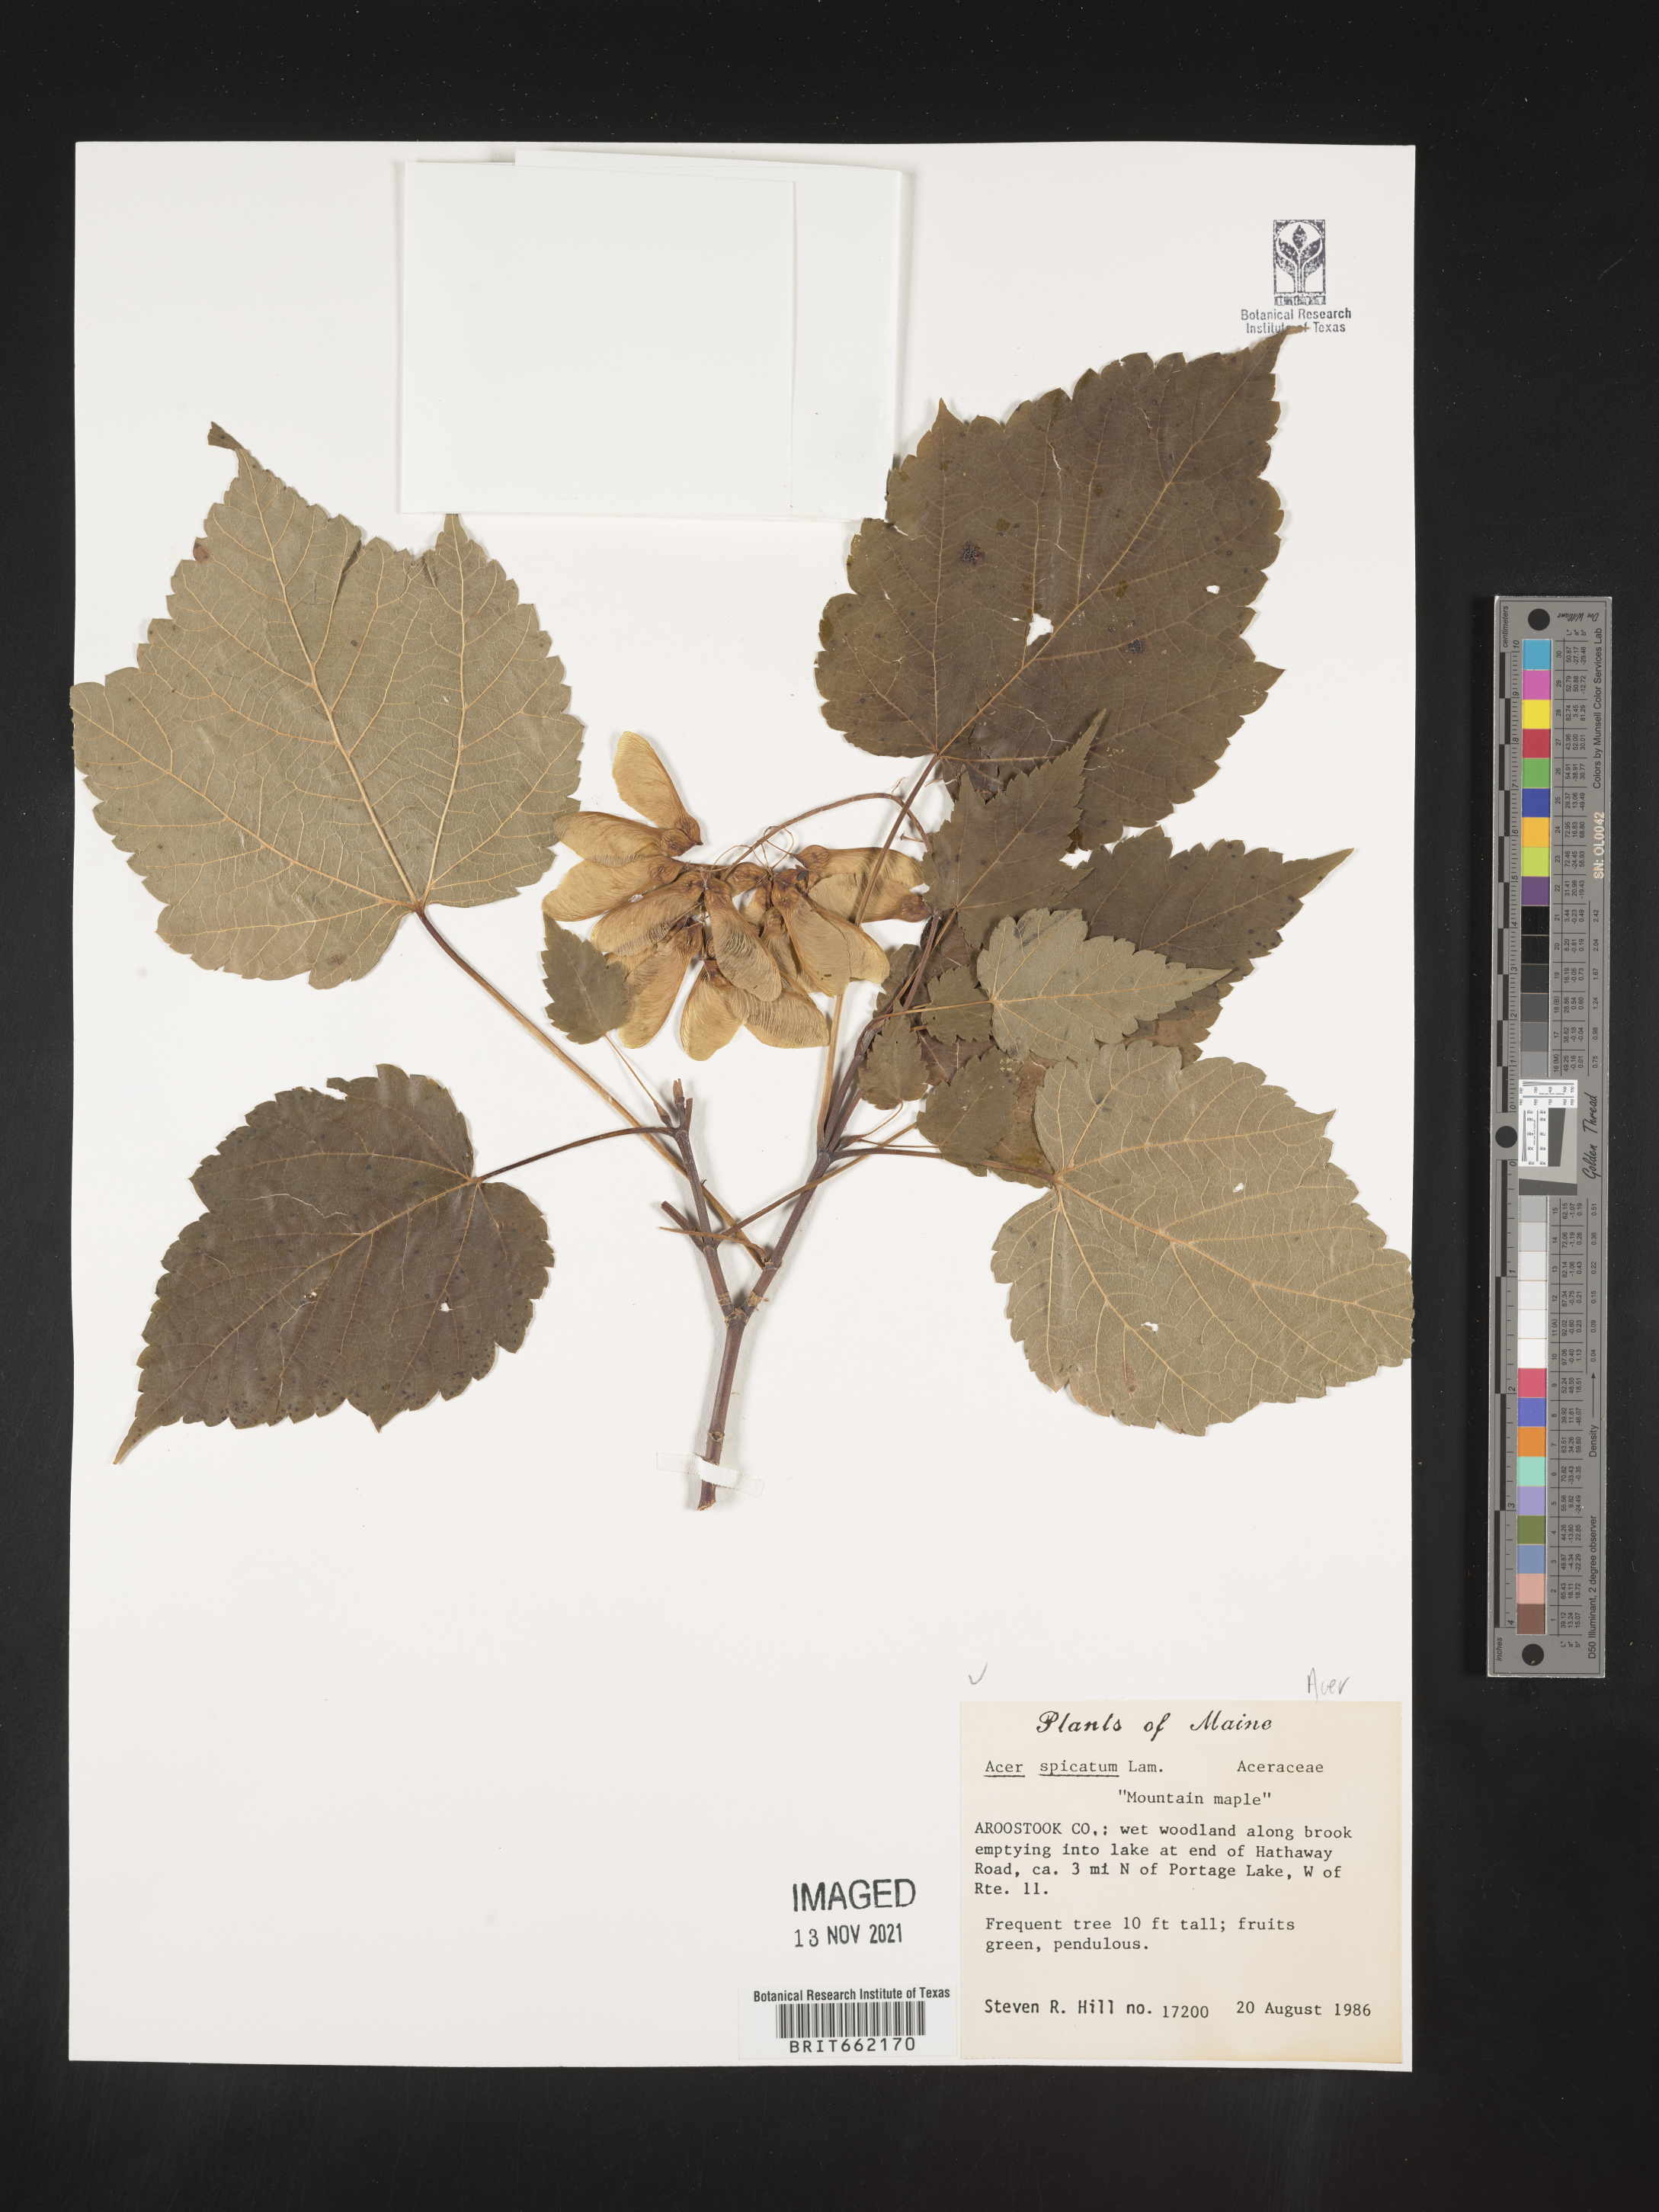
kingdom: Plantae
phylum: Tracheophyta
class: Magnoliopsida
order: Sapindales
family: Sapindaceae
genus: Acer
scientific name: Acer spicatum
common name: Mountain maple
